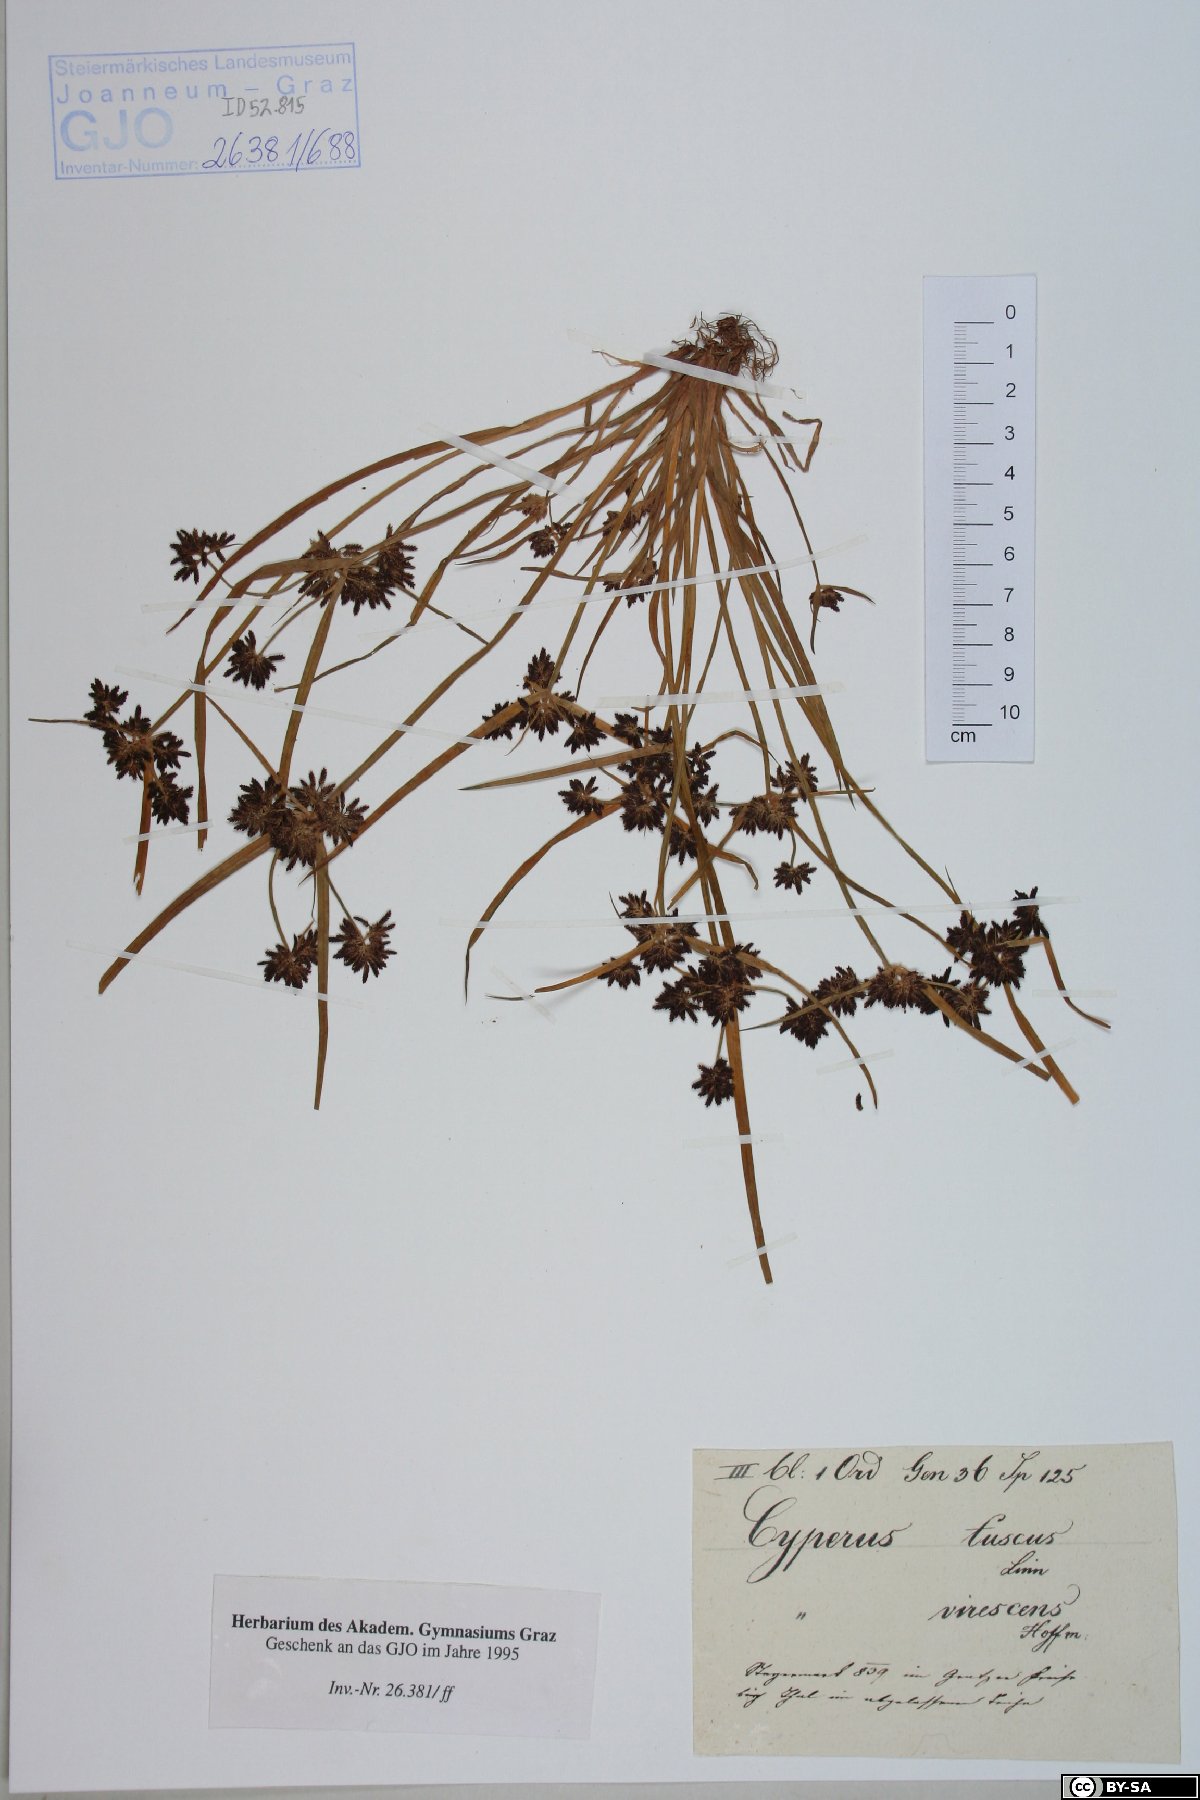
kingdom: Plantae
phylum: Tracheophyta
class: Liliopsida
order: Poales
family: Cyperaceae
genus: Cyperus
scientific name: Cyperus fuscus
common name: Brown galingale
